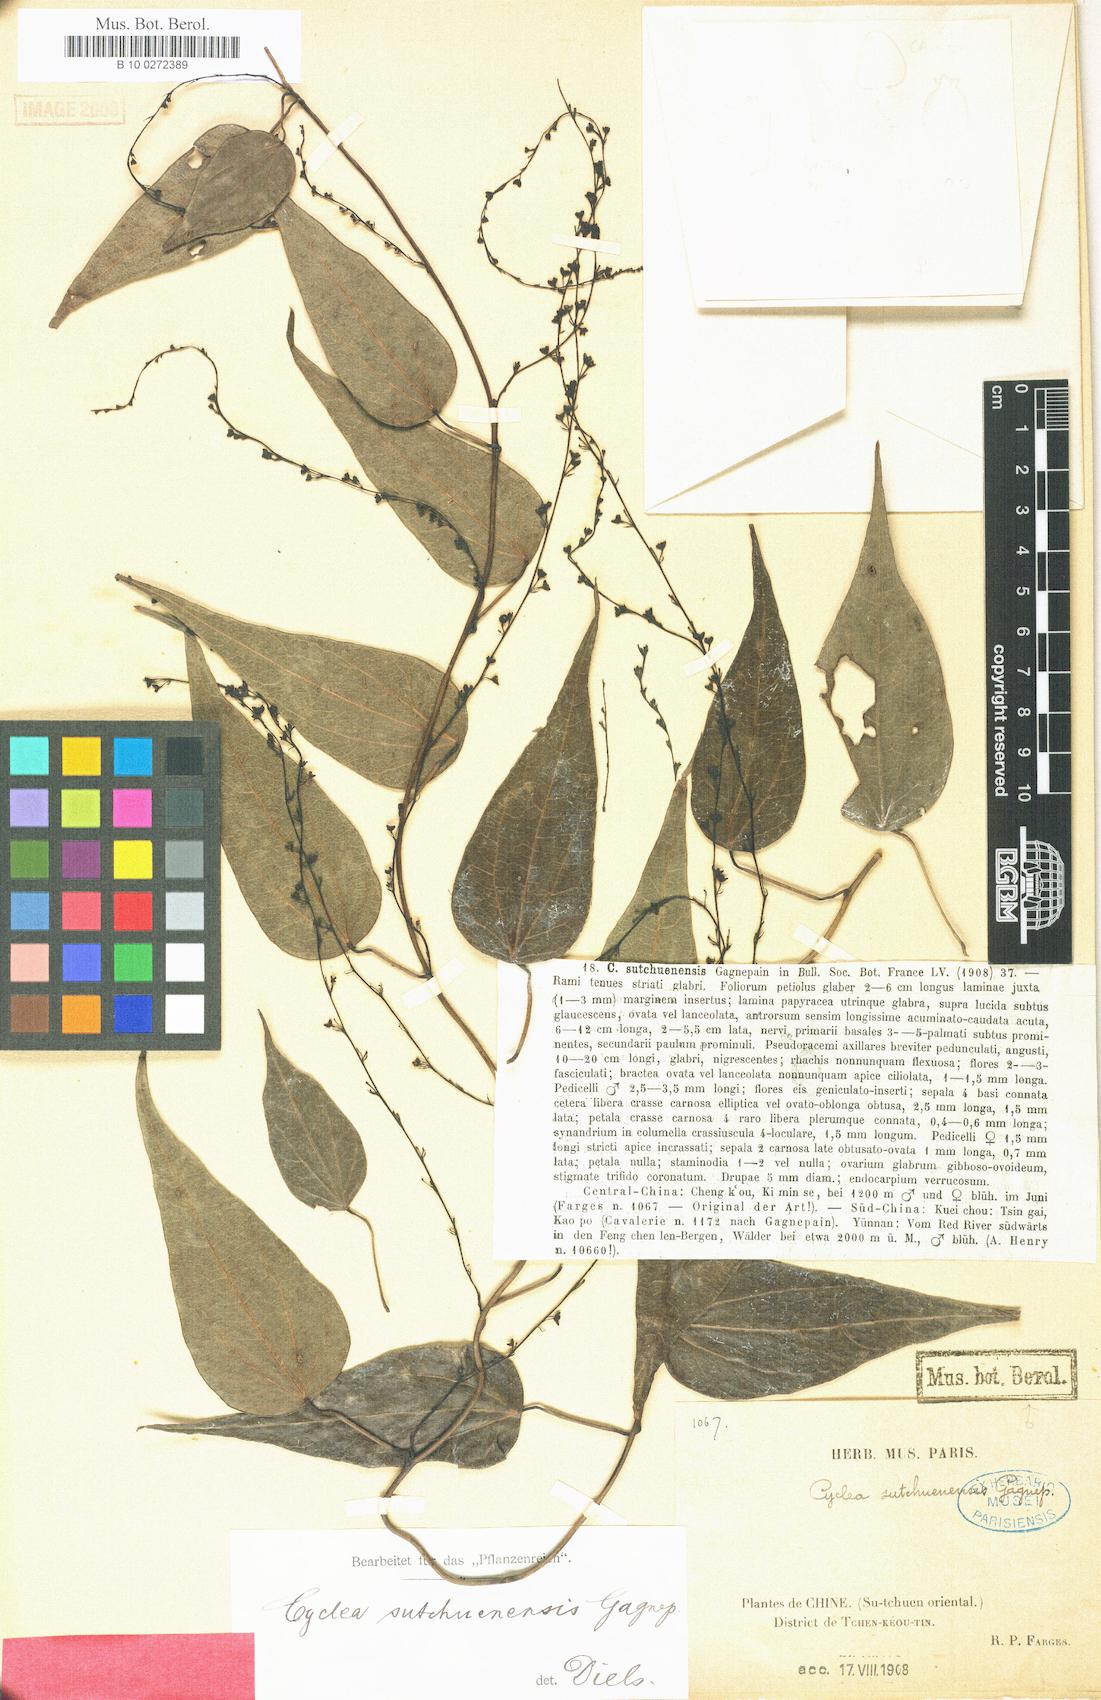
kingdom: Plantae
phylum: Tracheophyta
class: Magnoliopsida
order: Ranunculales
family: Menispermaceae
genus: Cyclea
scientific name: Cyclea sutchuenensis
